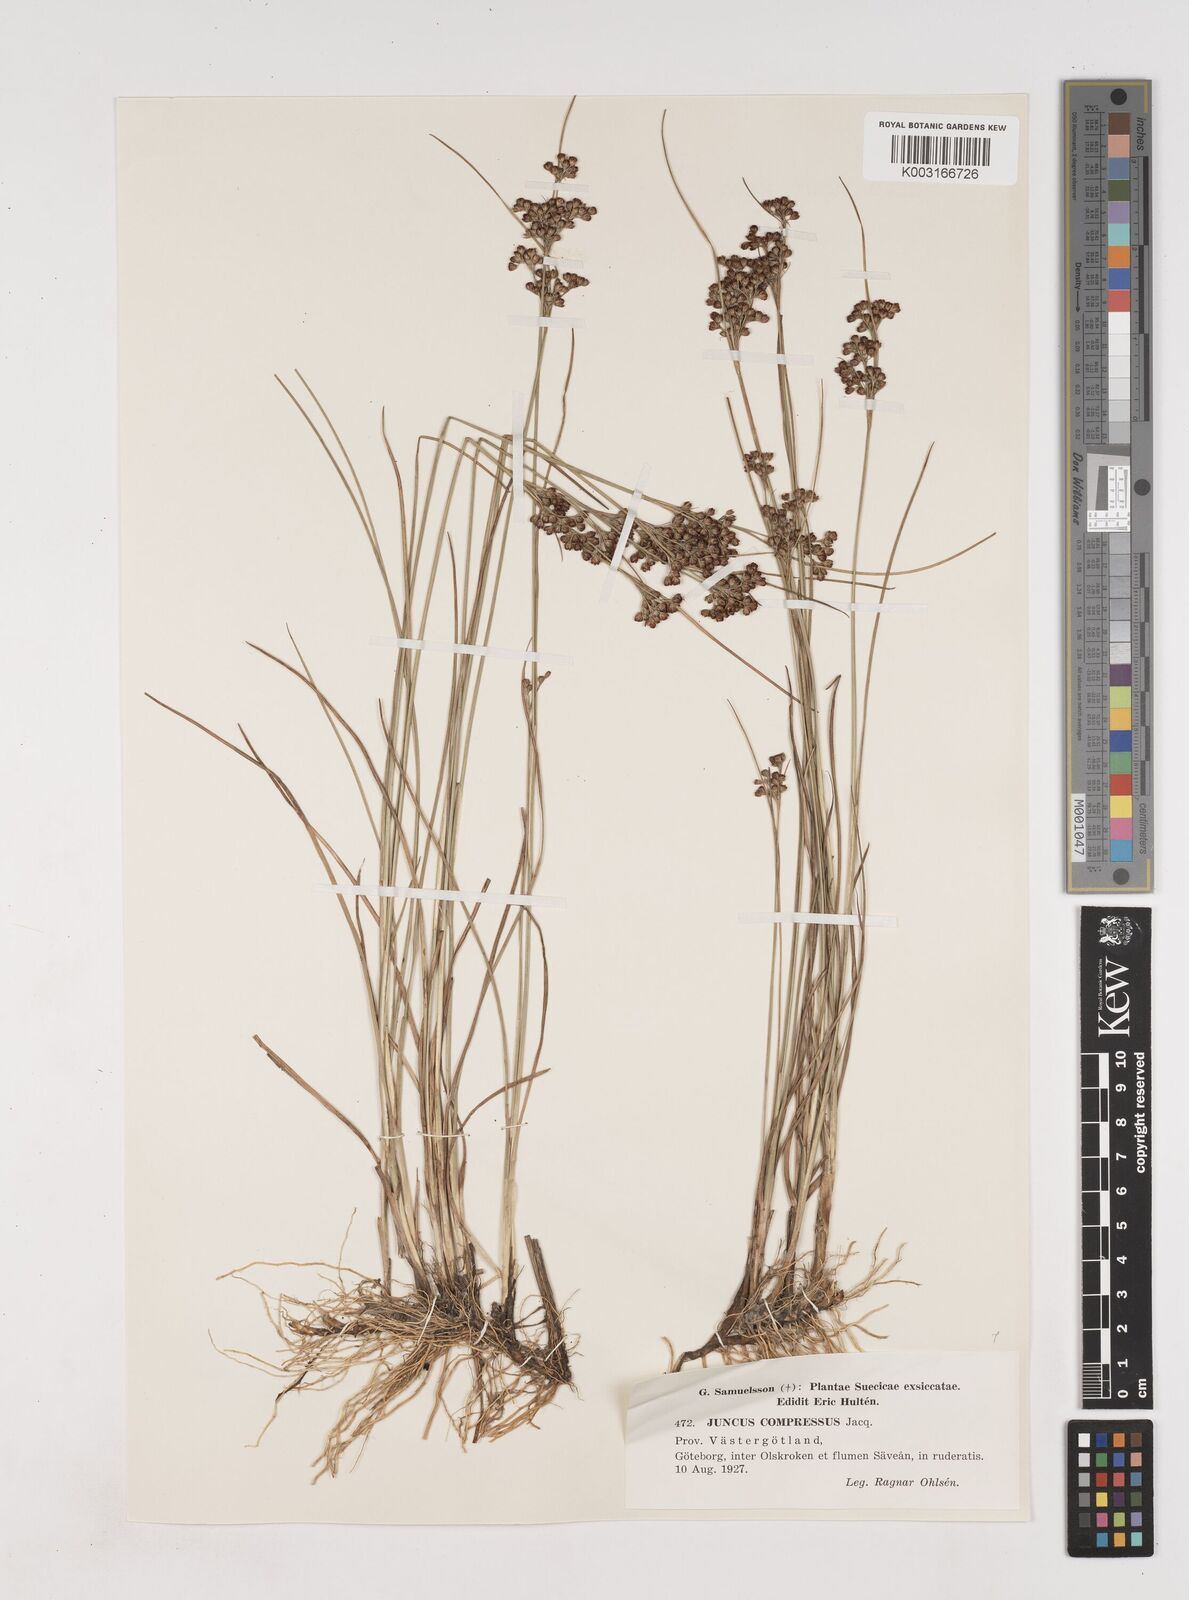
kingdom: Plantae
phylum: Tracheophyta
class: Liliopsida
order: Poales
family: Juncaceae
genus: Juncus
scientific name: Juncus
